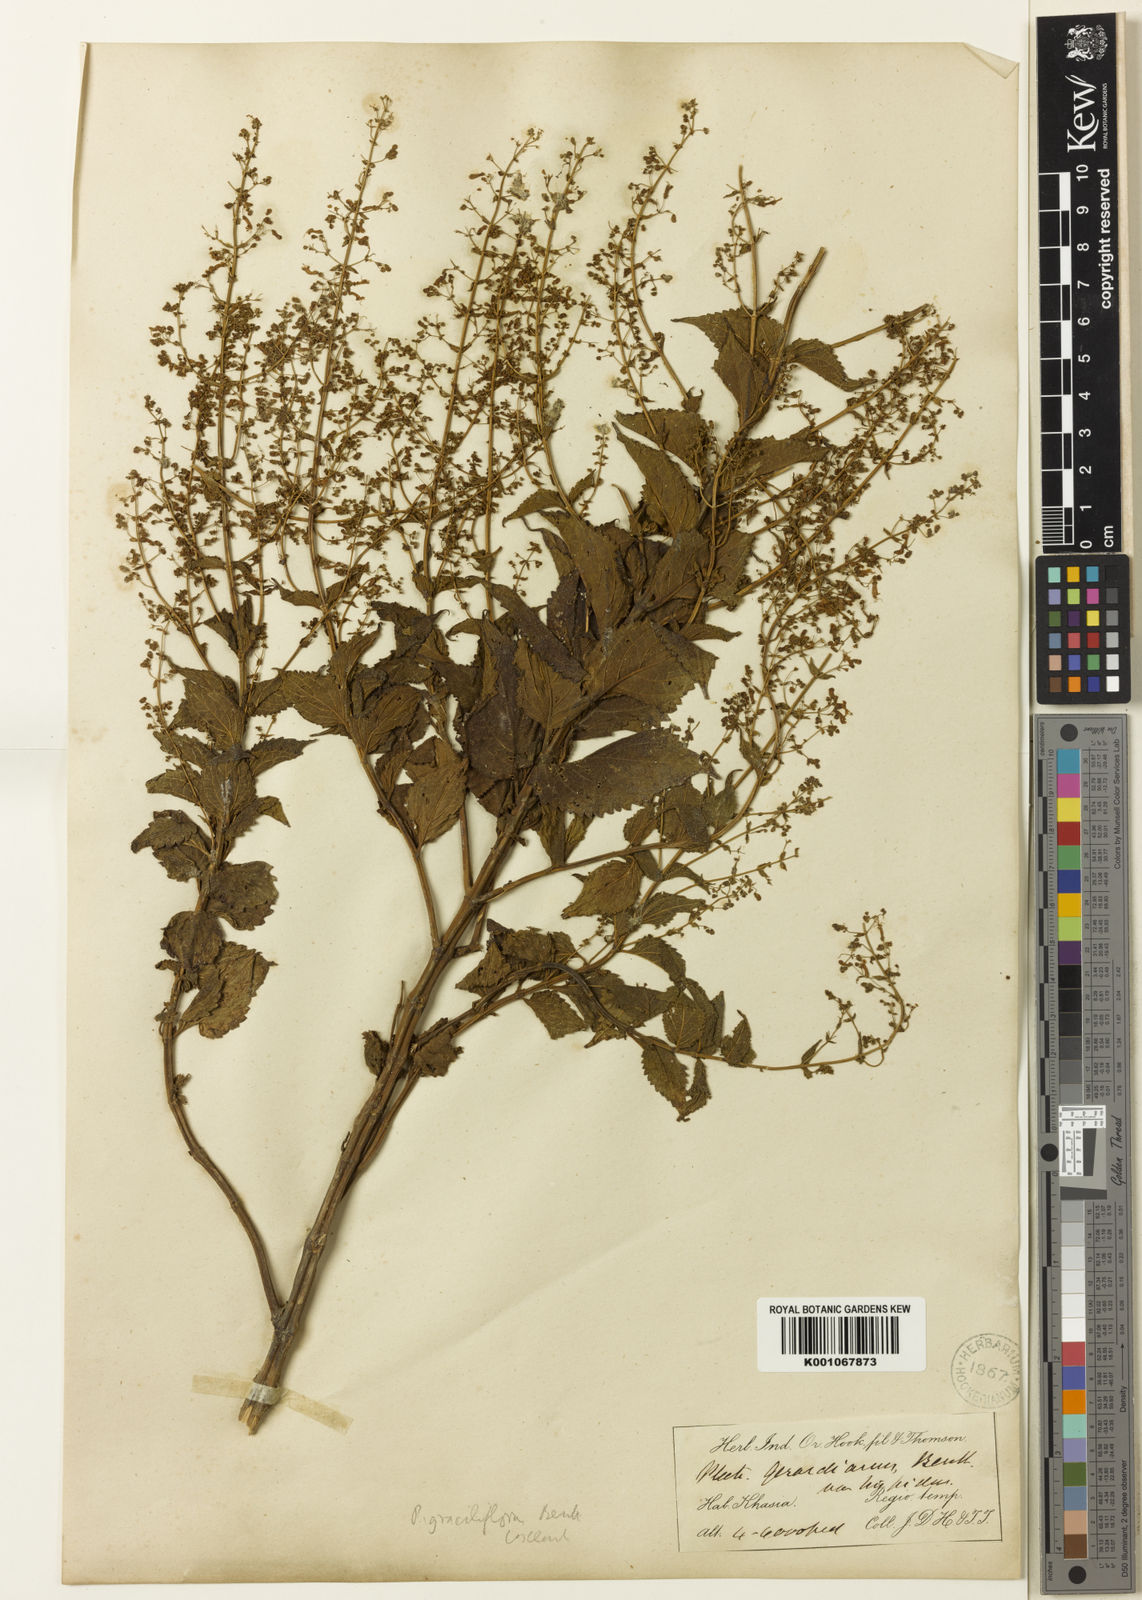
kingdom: Plantae
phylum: Tracheophyta
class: Magnoliopsida
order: Lamiales
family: Lamiaceae
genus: Isodon
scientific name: Isodon lophanthoides
